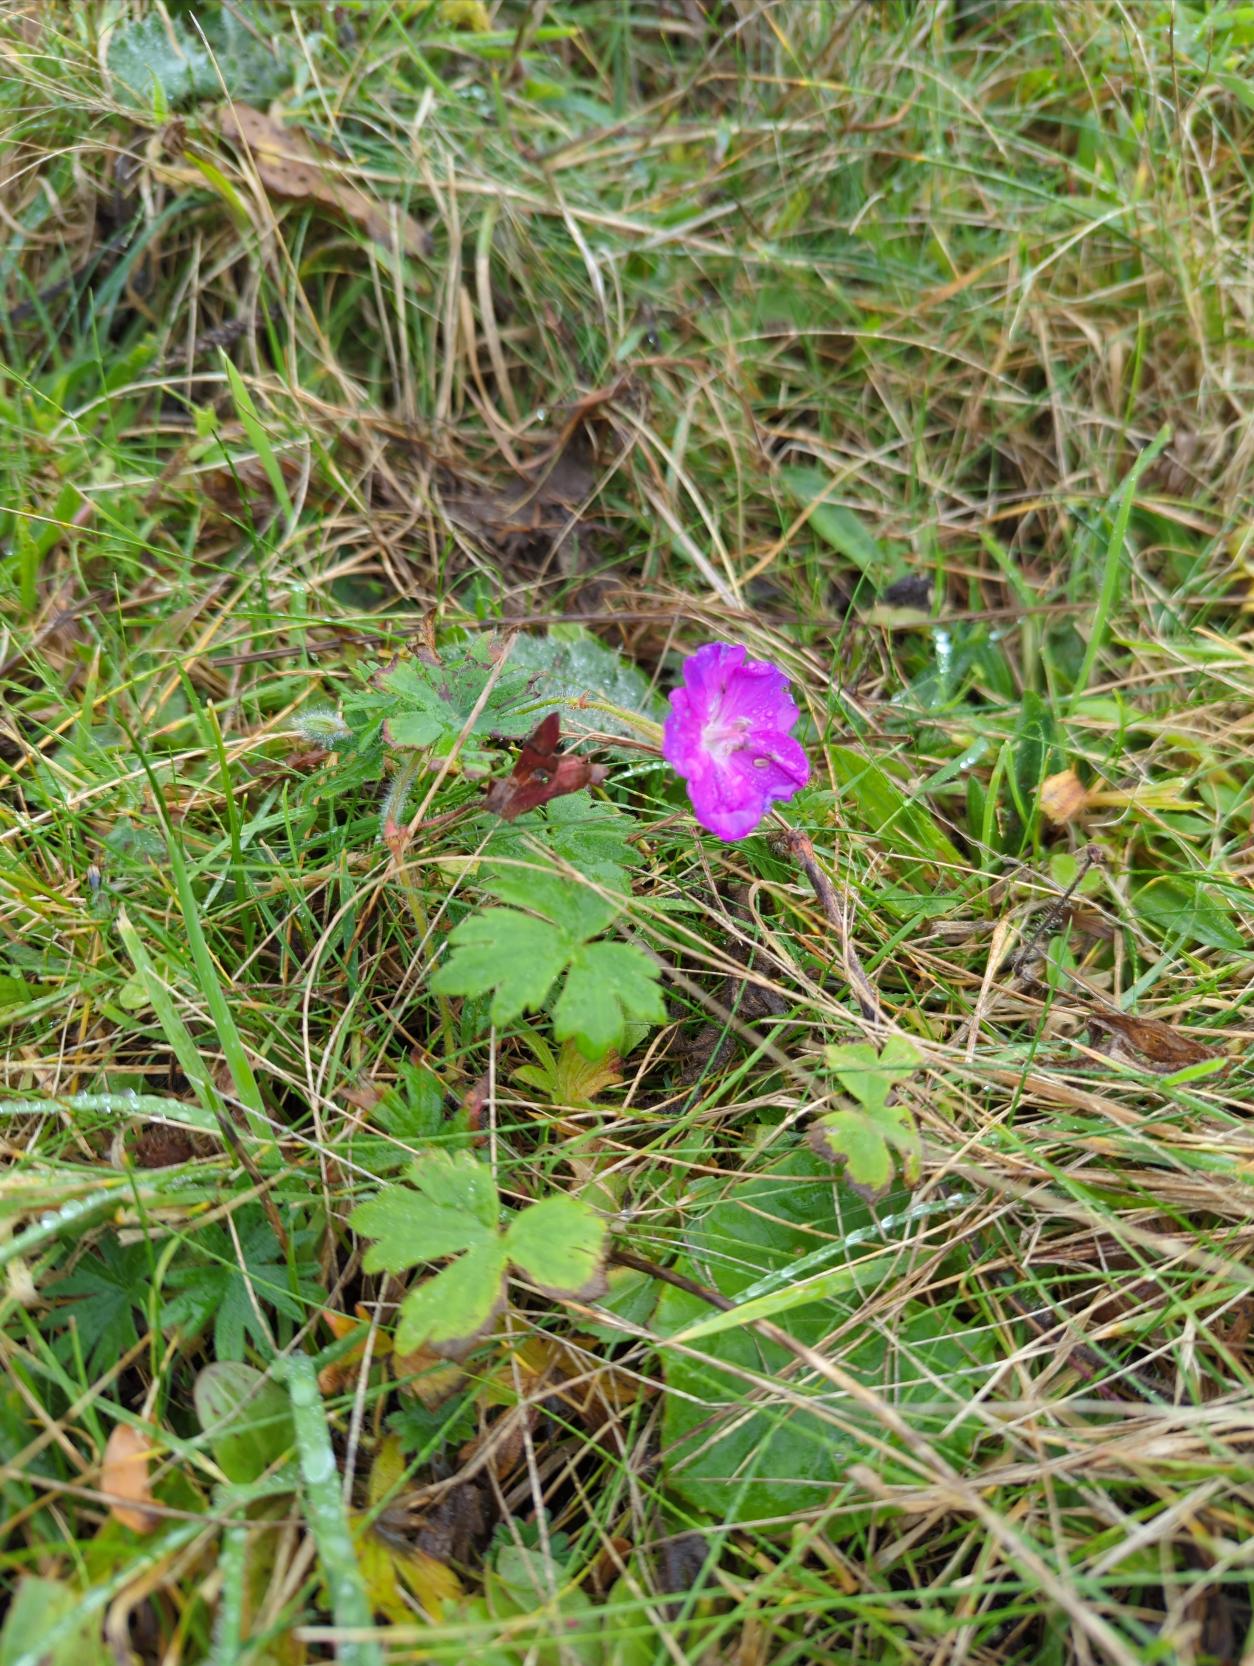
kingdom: Plantae
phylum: Tracheophyta
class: Magnoliopsida
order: Geraniales
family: Geraniaceae
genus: Geranium
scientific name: Geranium sanguineum
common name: Blodrød storkenæb
